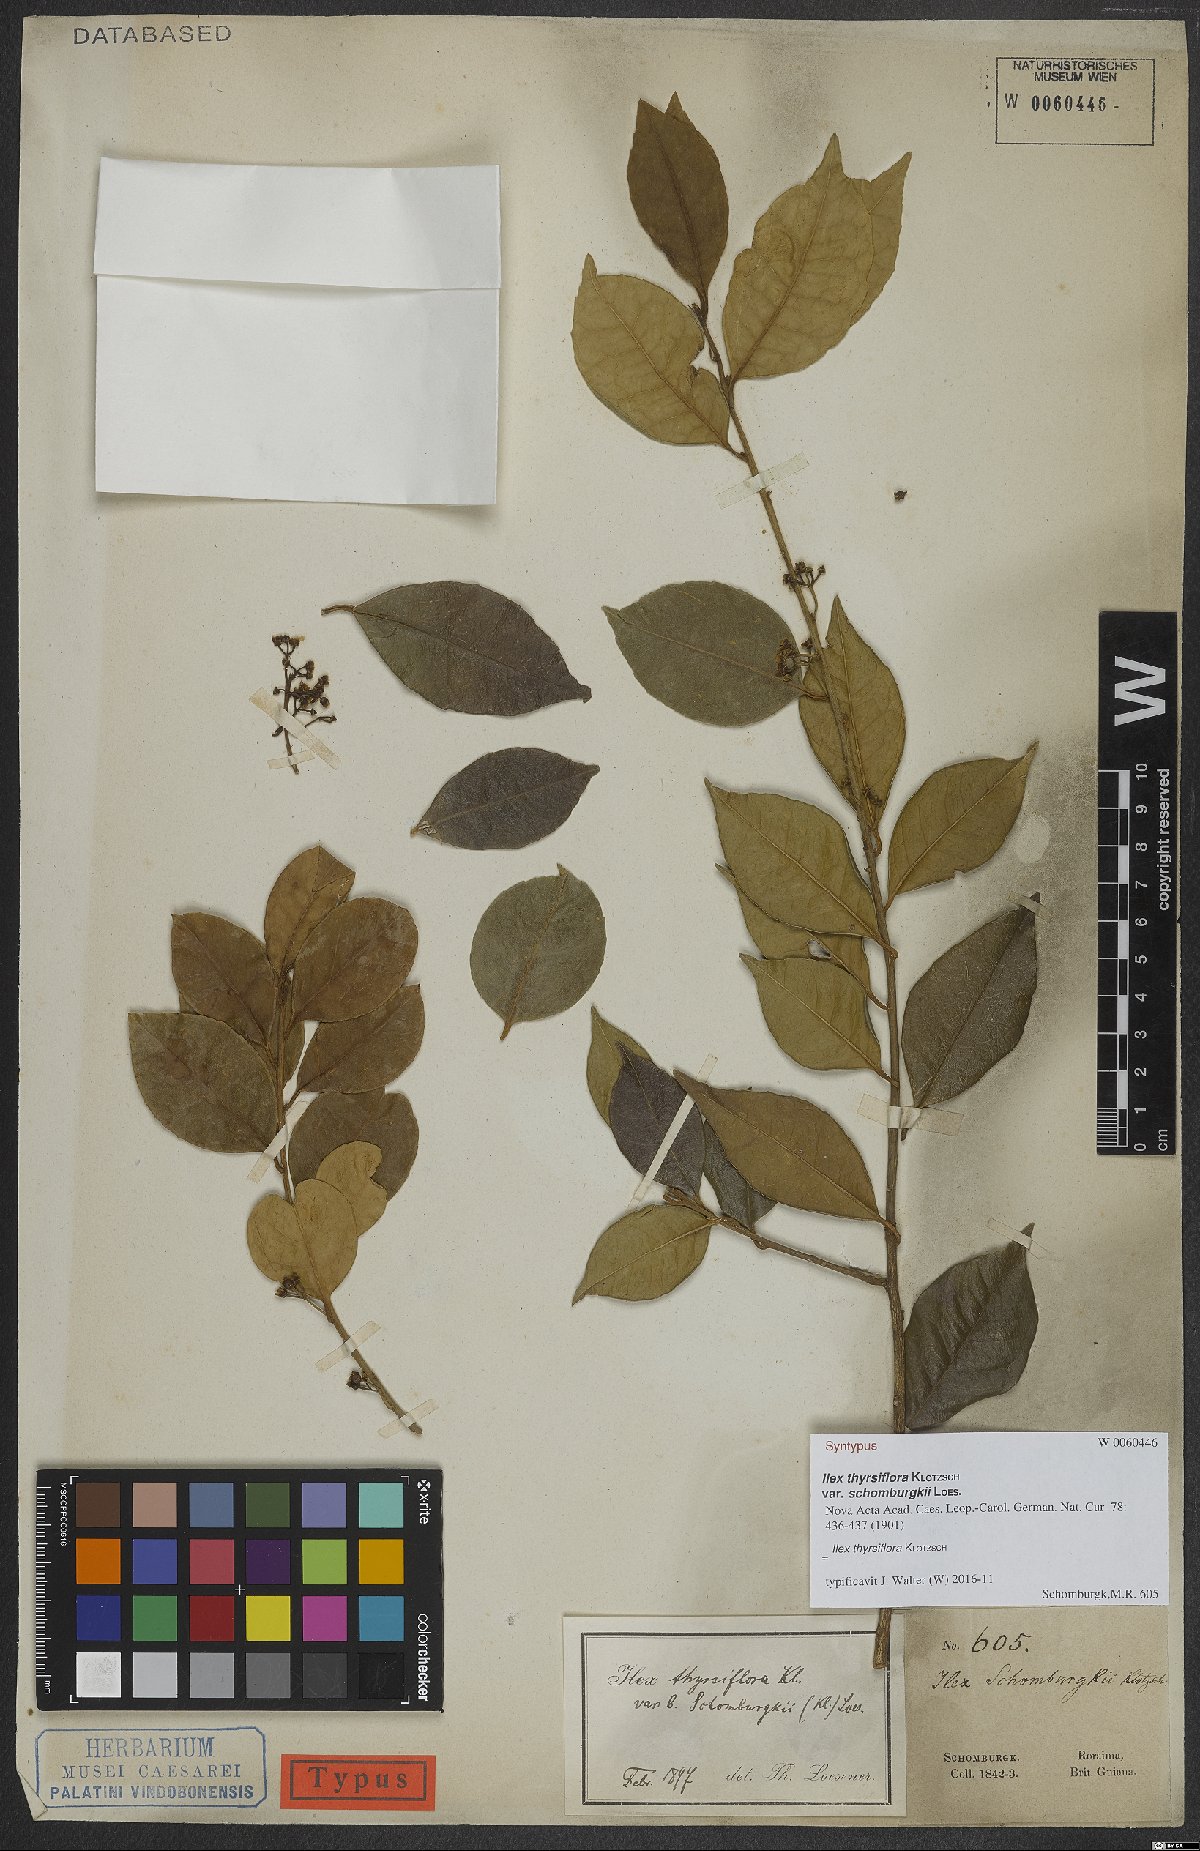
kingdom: Plantae
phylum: Tracheophyta
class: Magnoliopsida
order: Aquifoliales
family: Aquifoliaceae
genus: Ilex
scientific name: Ilex thyrsiflora
